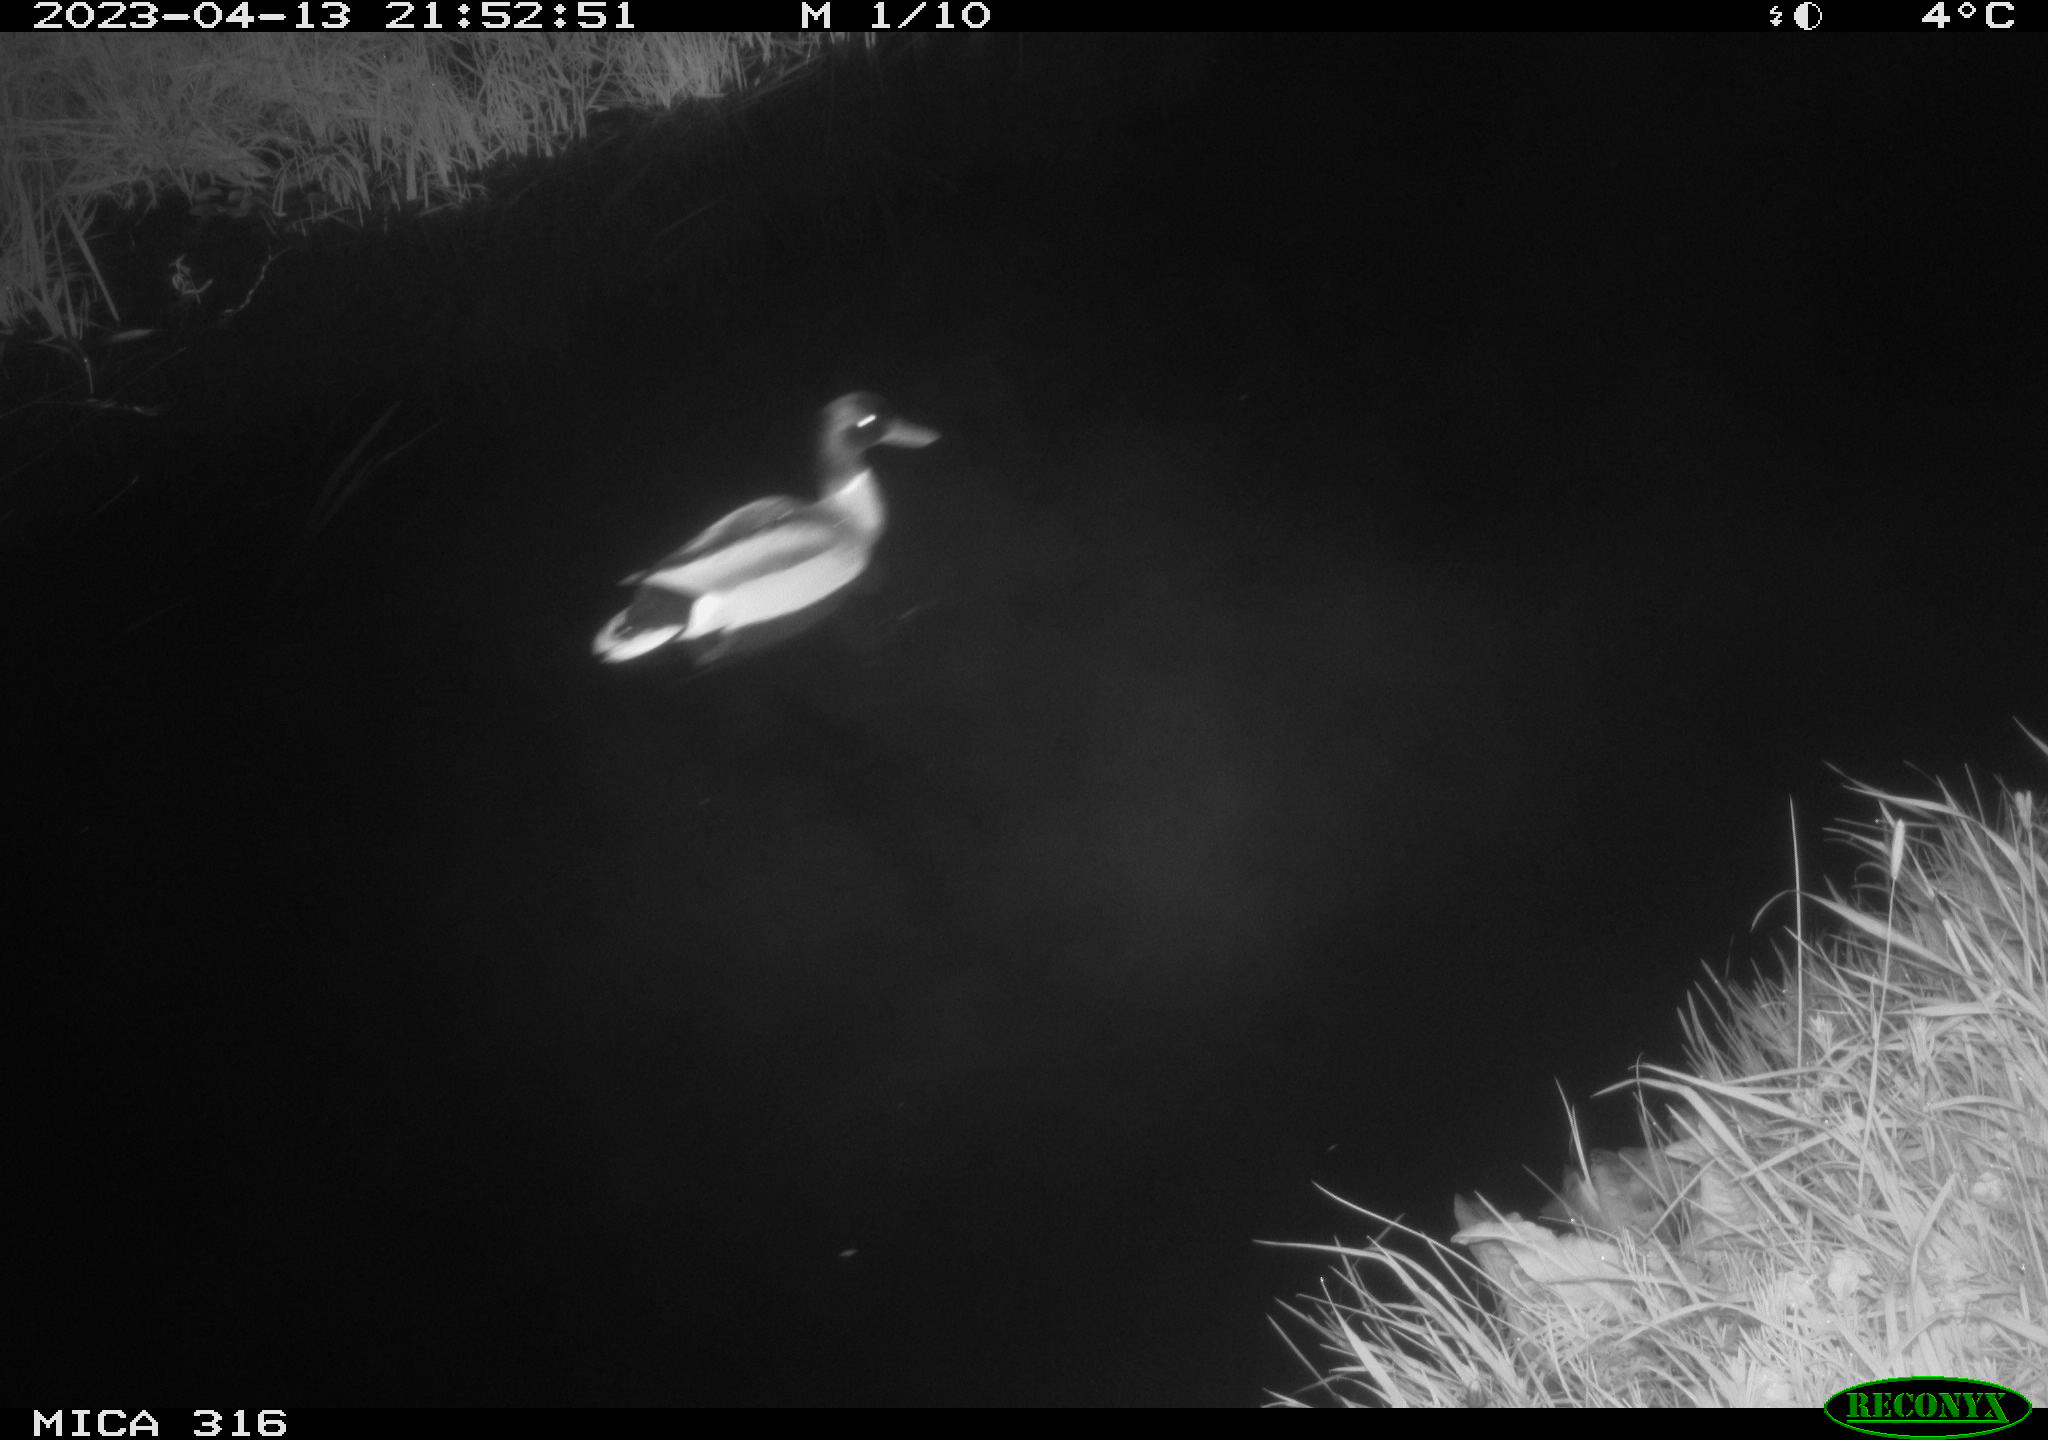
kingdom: Animalia
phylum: Chordata
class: Aves
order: Anseriformes
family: Anatidae
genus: Anas
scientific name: Anas
